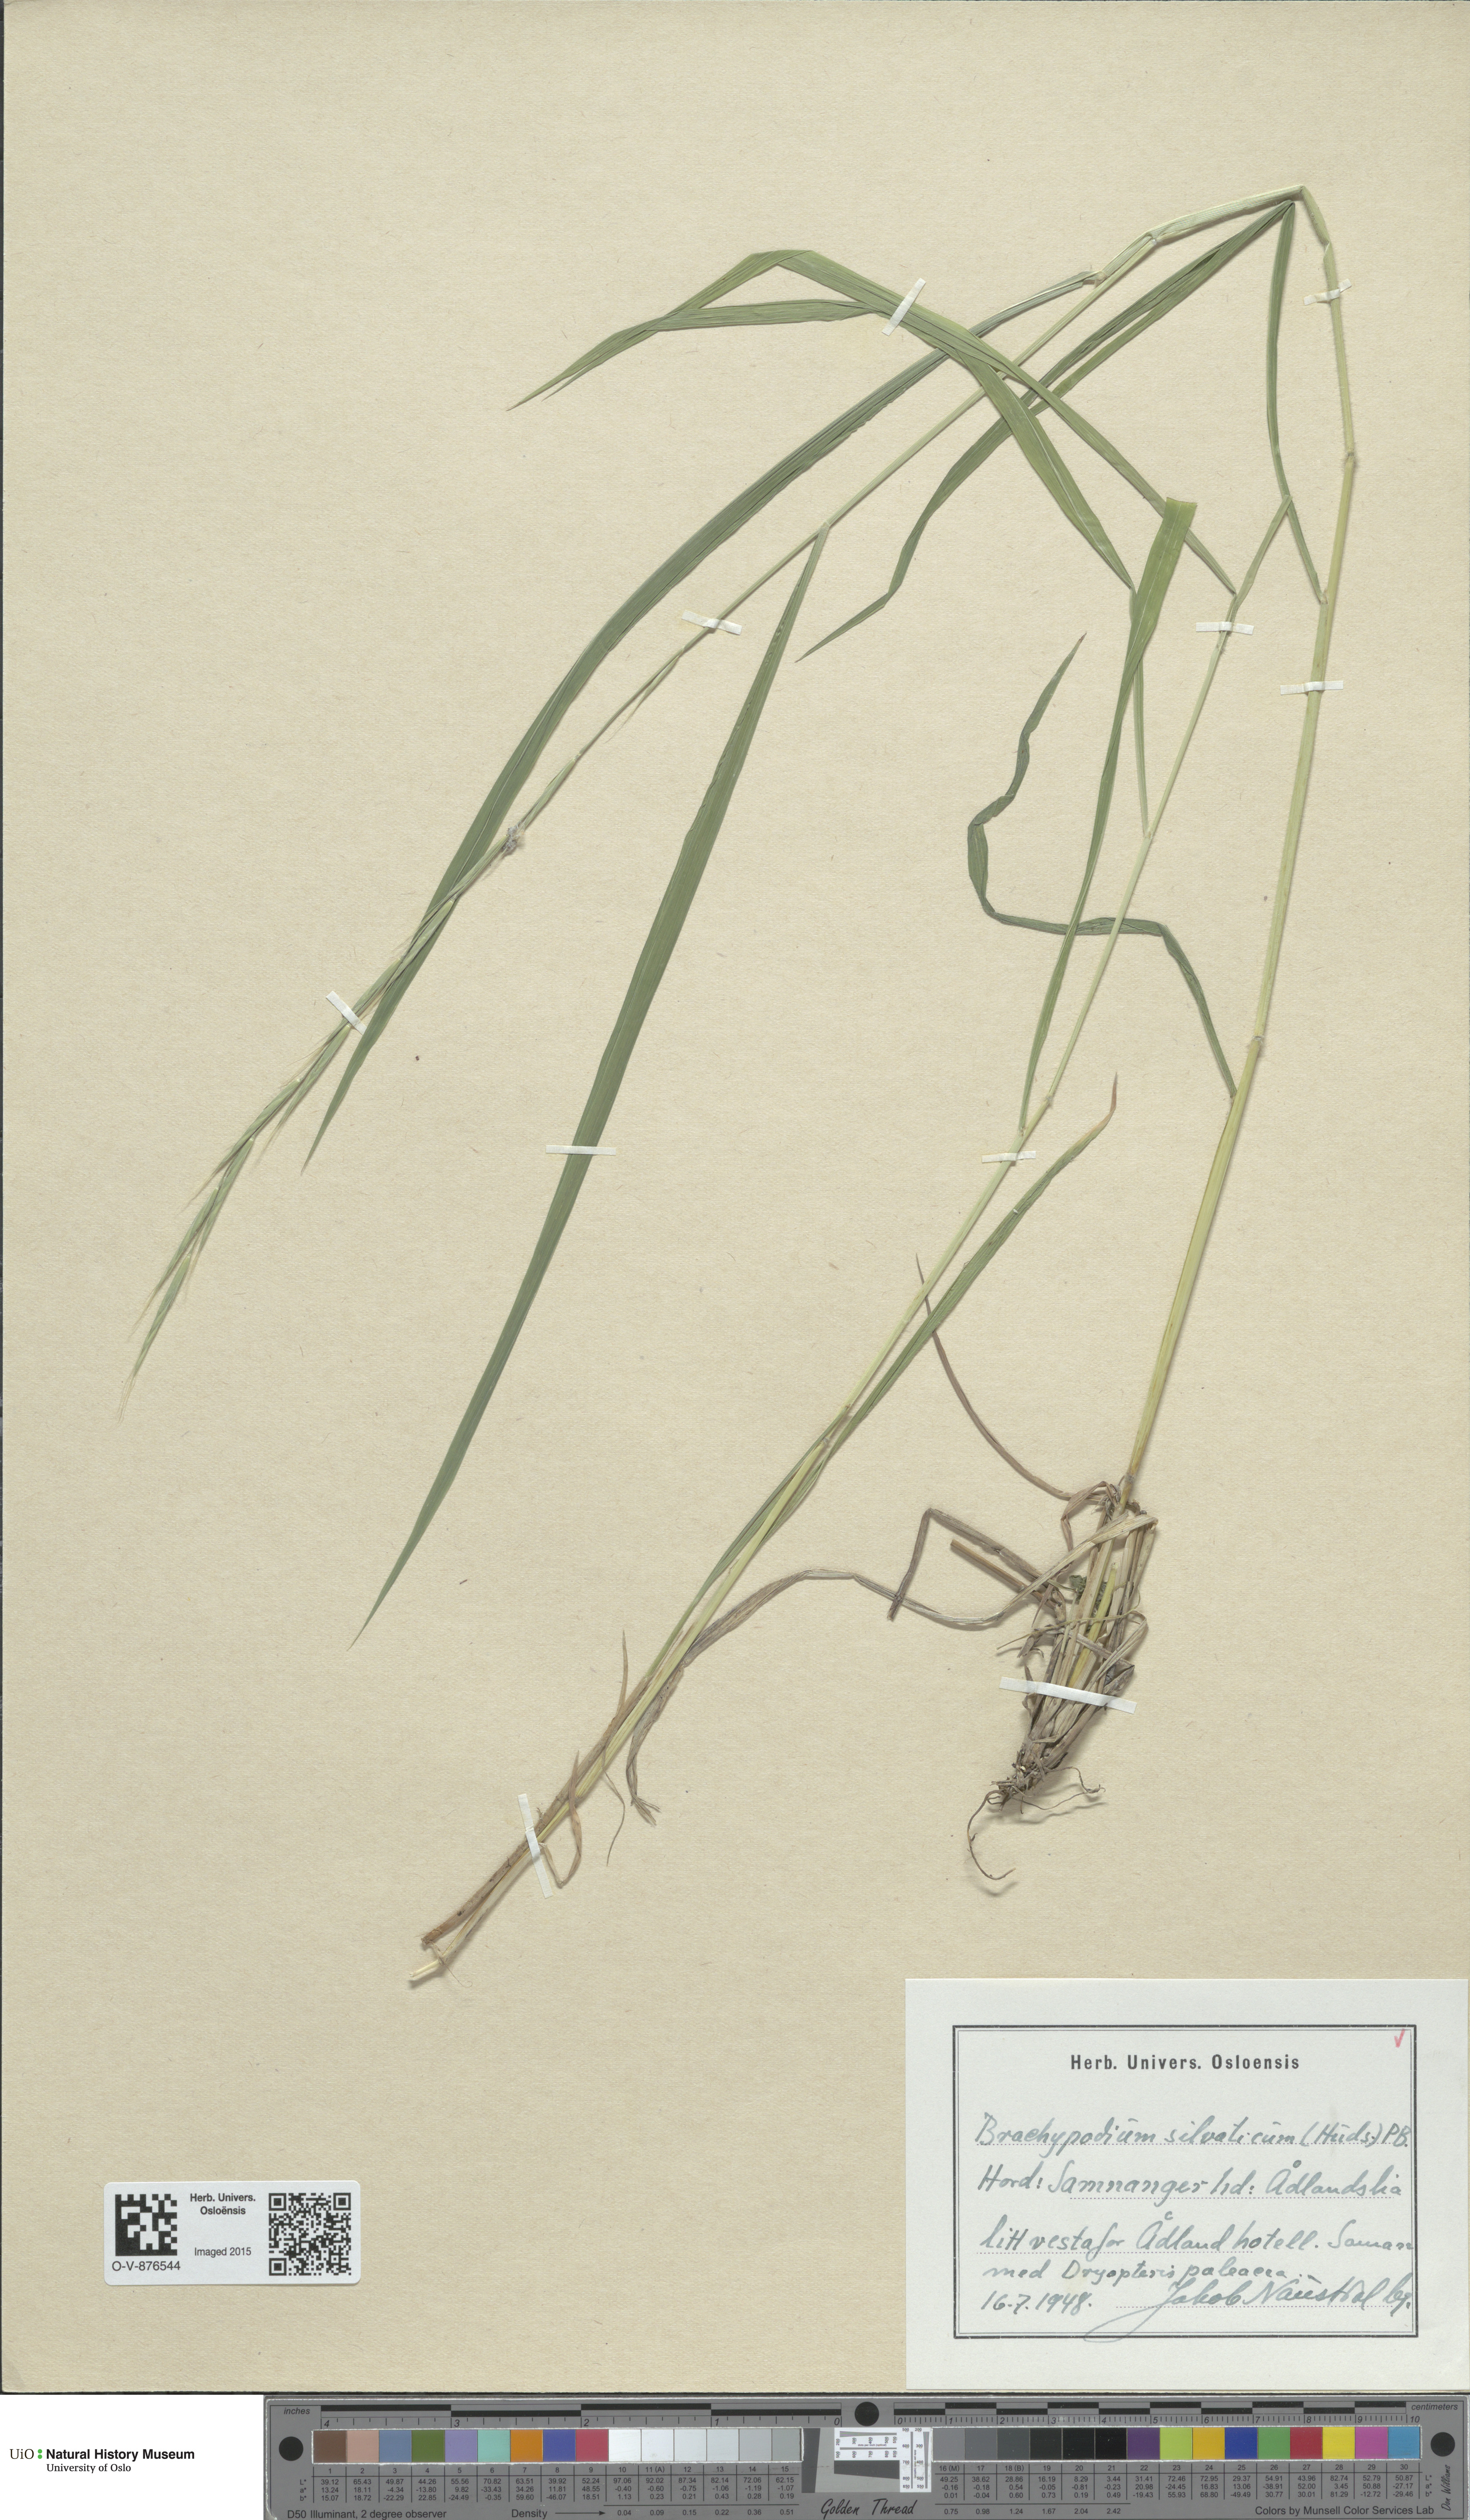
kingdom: Plantae
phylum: Tracheophyta
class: Liliopsida
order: Poales
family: Poaceae
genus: Brachypodium
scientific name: Brachypodium sylvaticum
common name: False-brome
